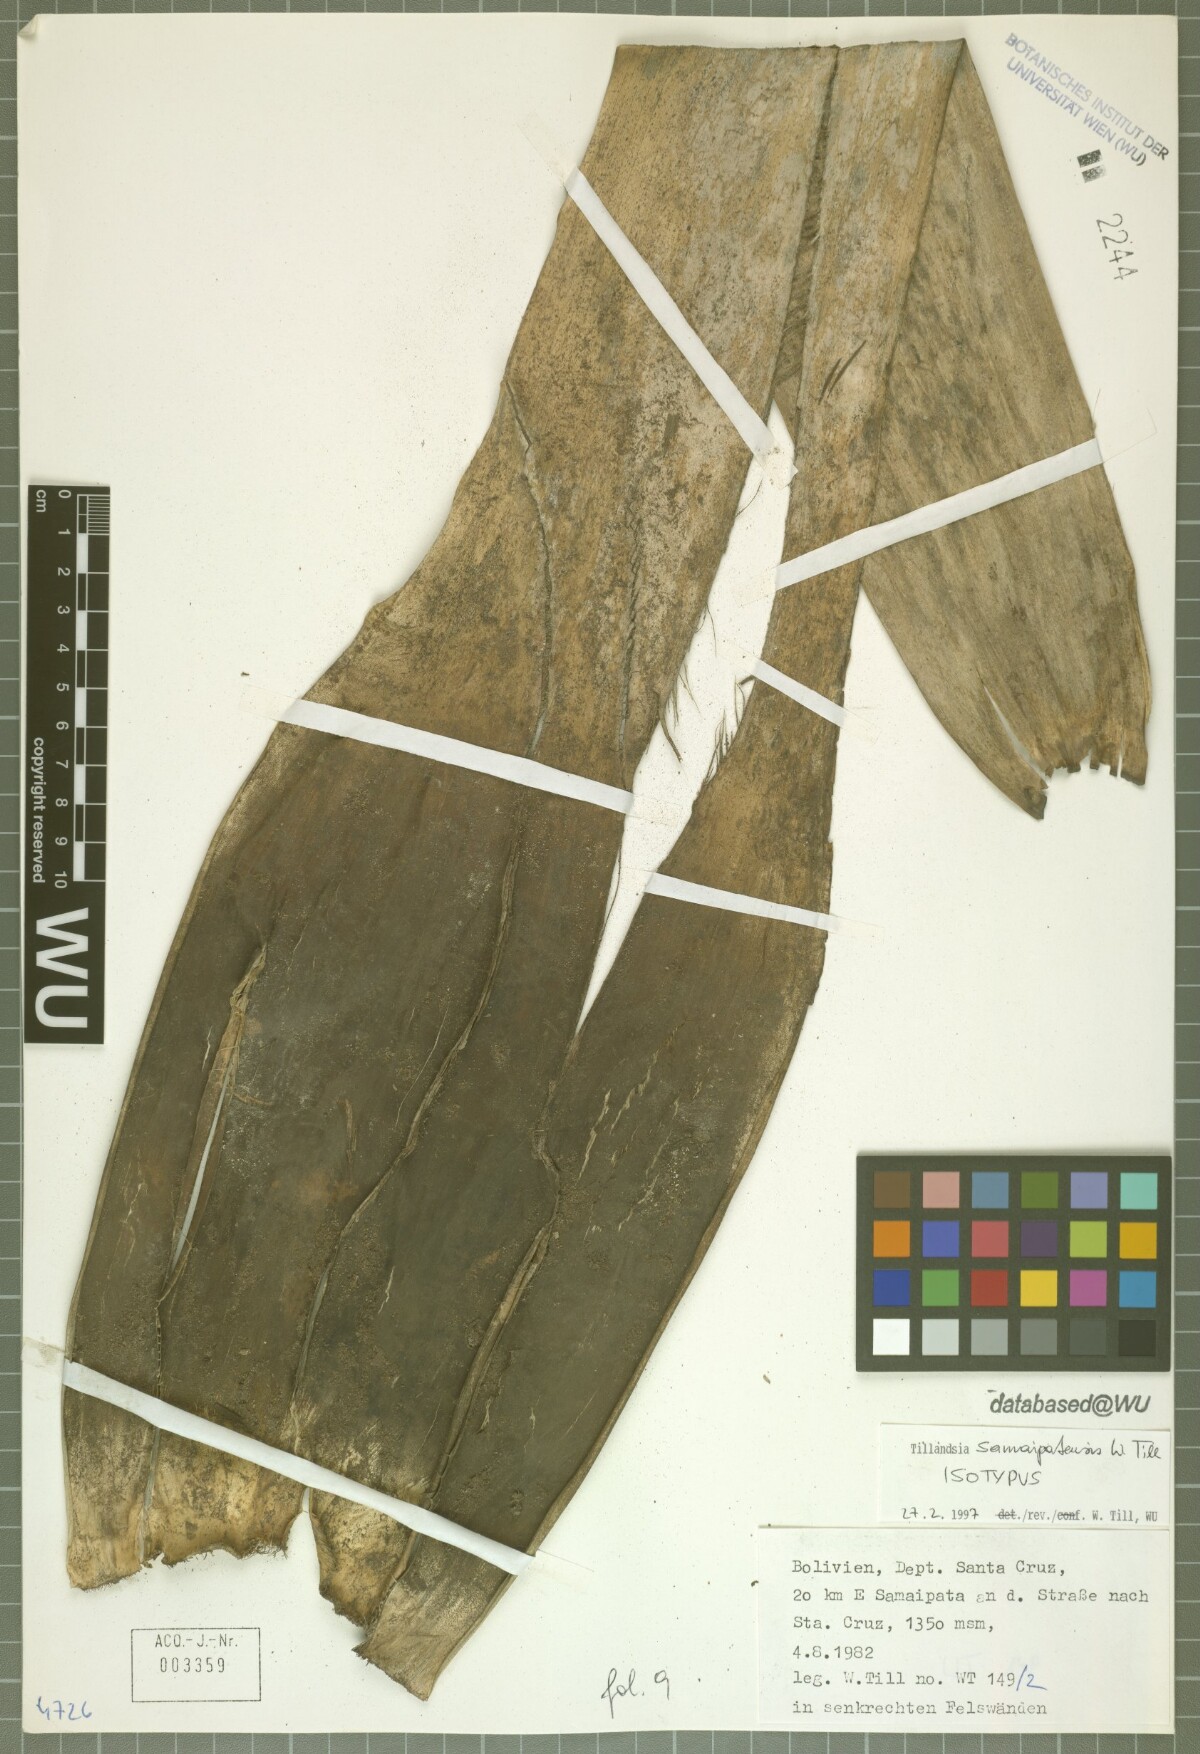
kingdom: Plantae
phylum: Tracheophyta
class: Liliopsida
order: Poales
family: Bromeliaceae
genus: Tillandsia
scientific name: Tillandsia samaipatensis
